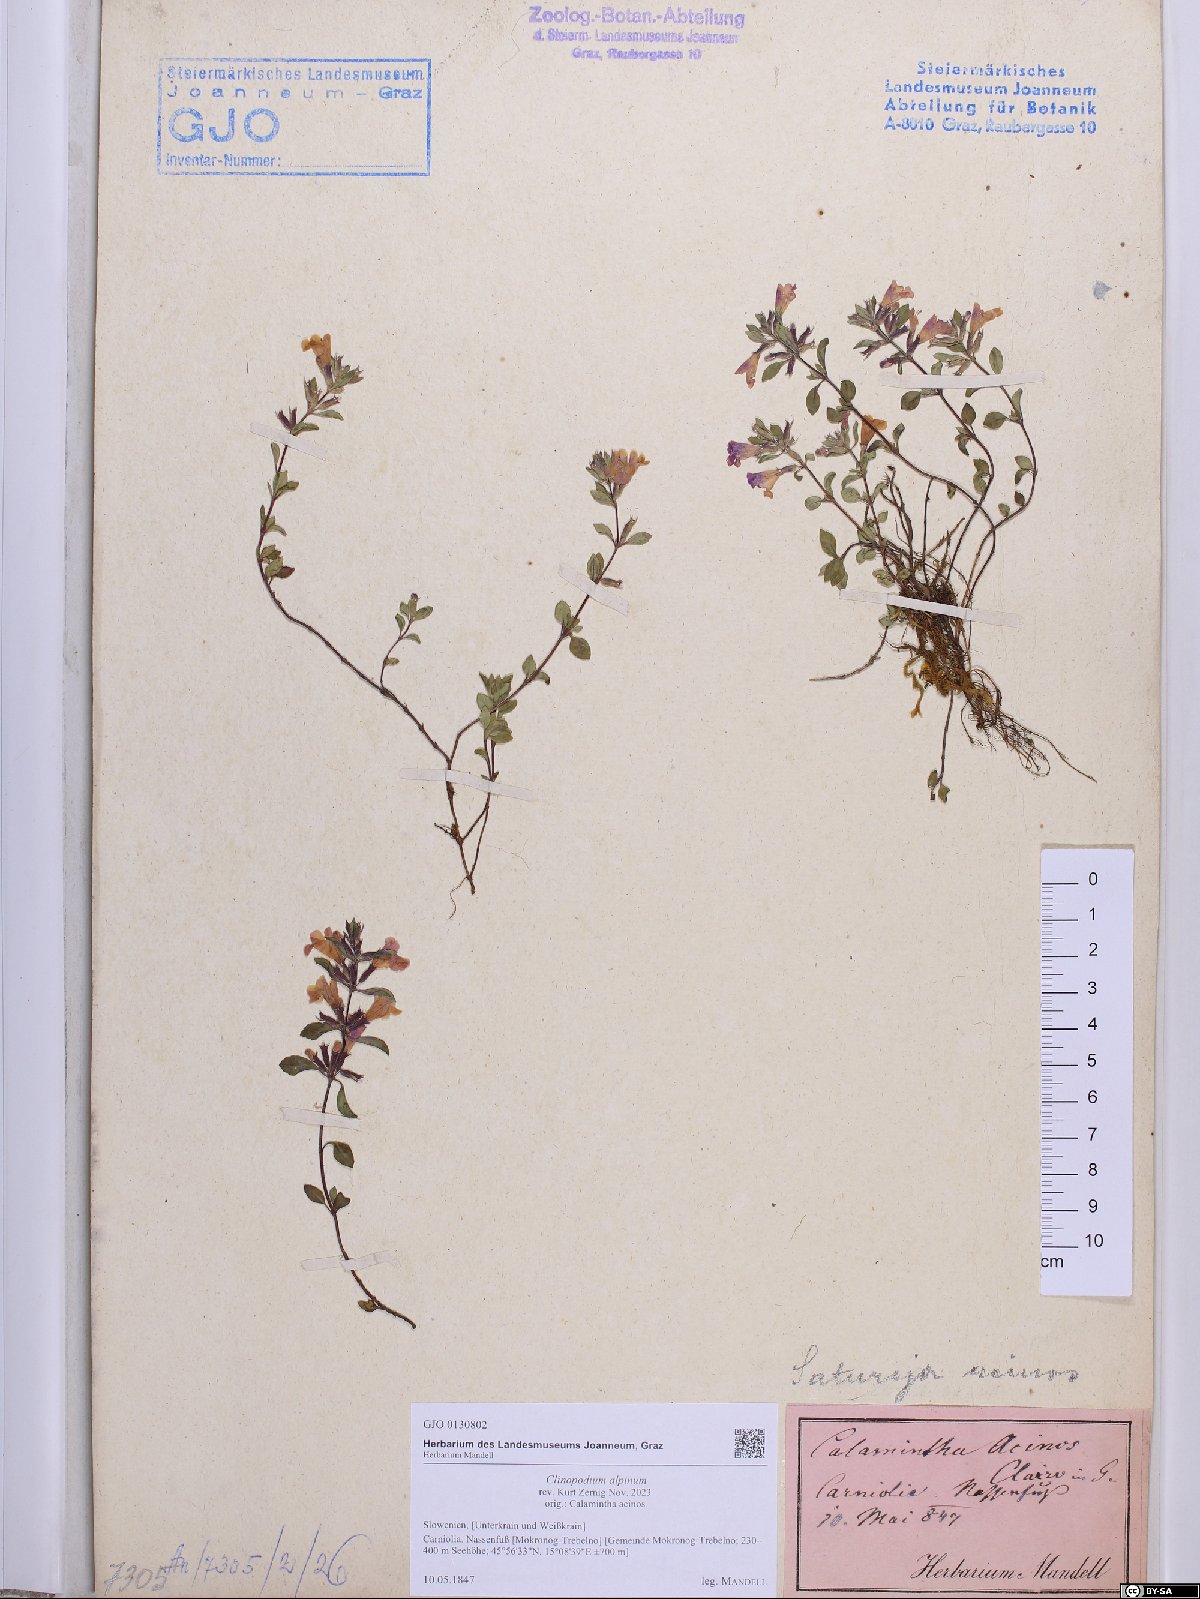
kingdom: Plantae
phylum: Tracheophyta
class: Magnoliopsida
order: Lamiales
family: Lamiaceae
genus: Clinopodium
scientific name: Clinopodium alpinum
